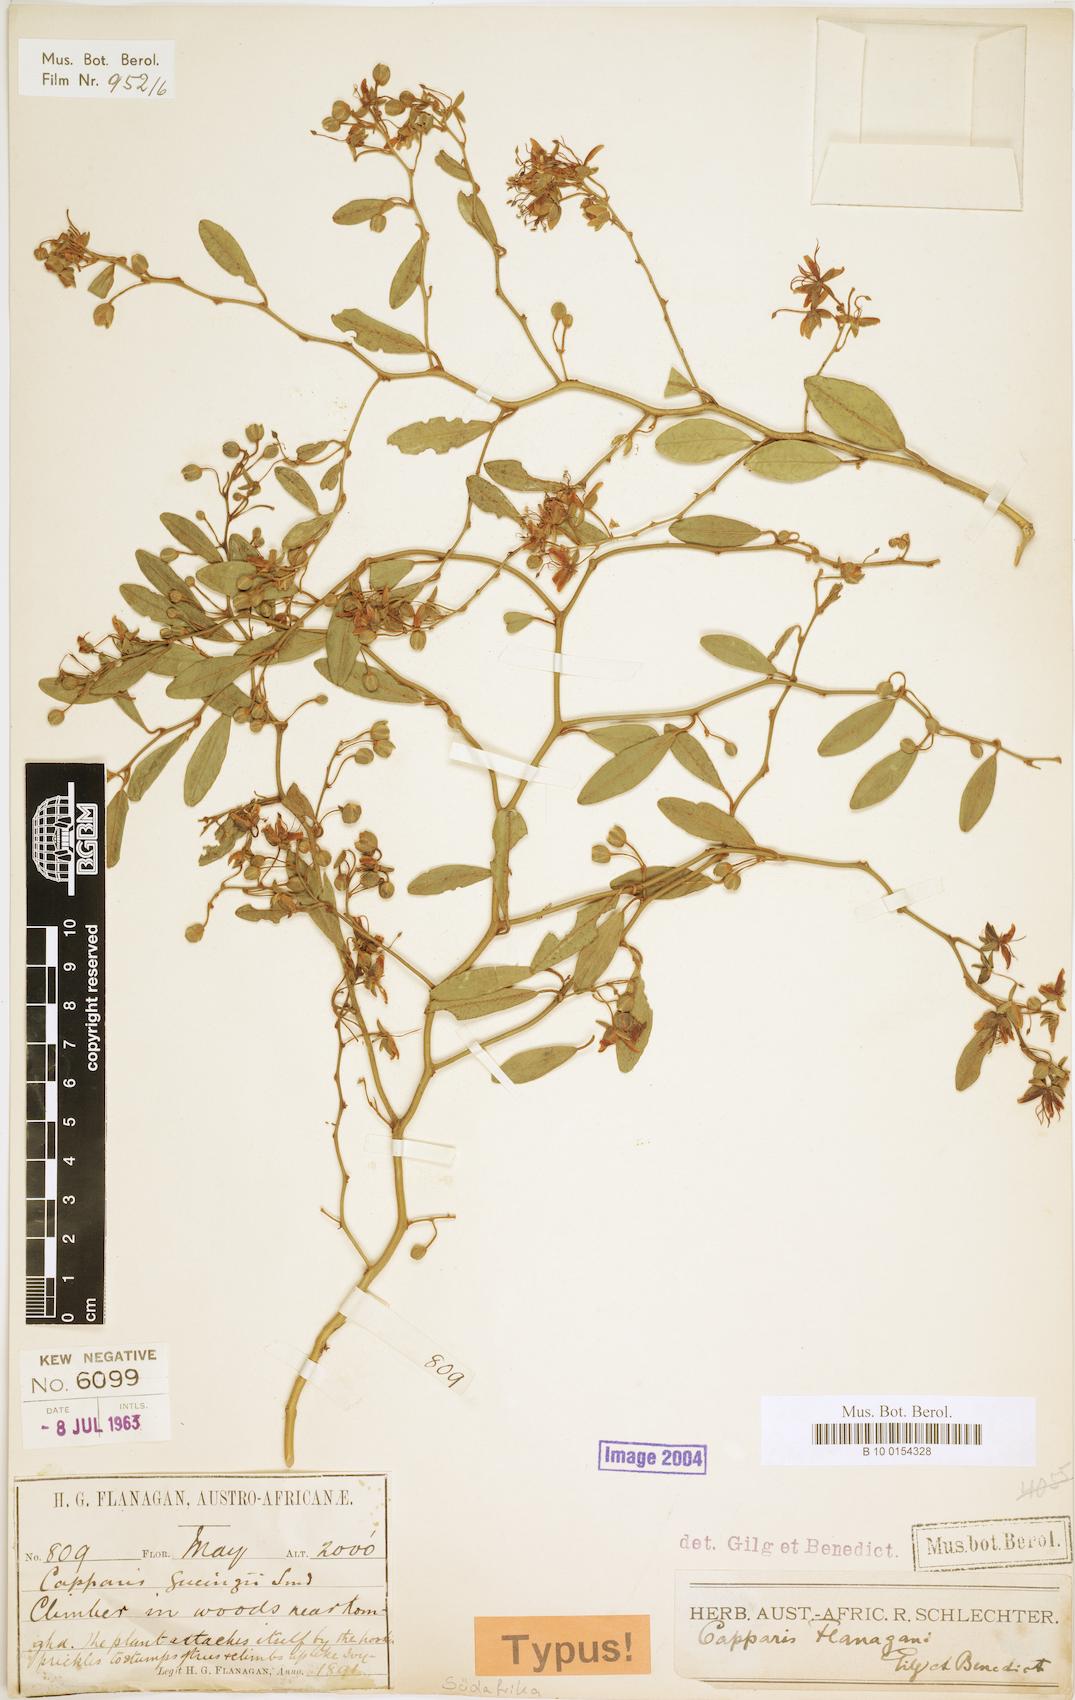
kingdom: Plantae
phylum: Tracheophyta
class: Magnoliopsida
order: Brassicales
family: Capparaceae
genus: Capparis
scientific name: Capparis fascicularis
